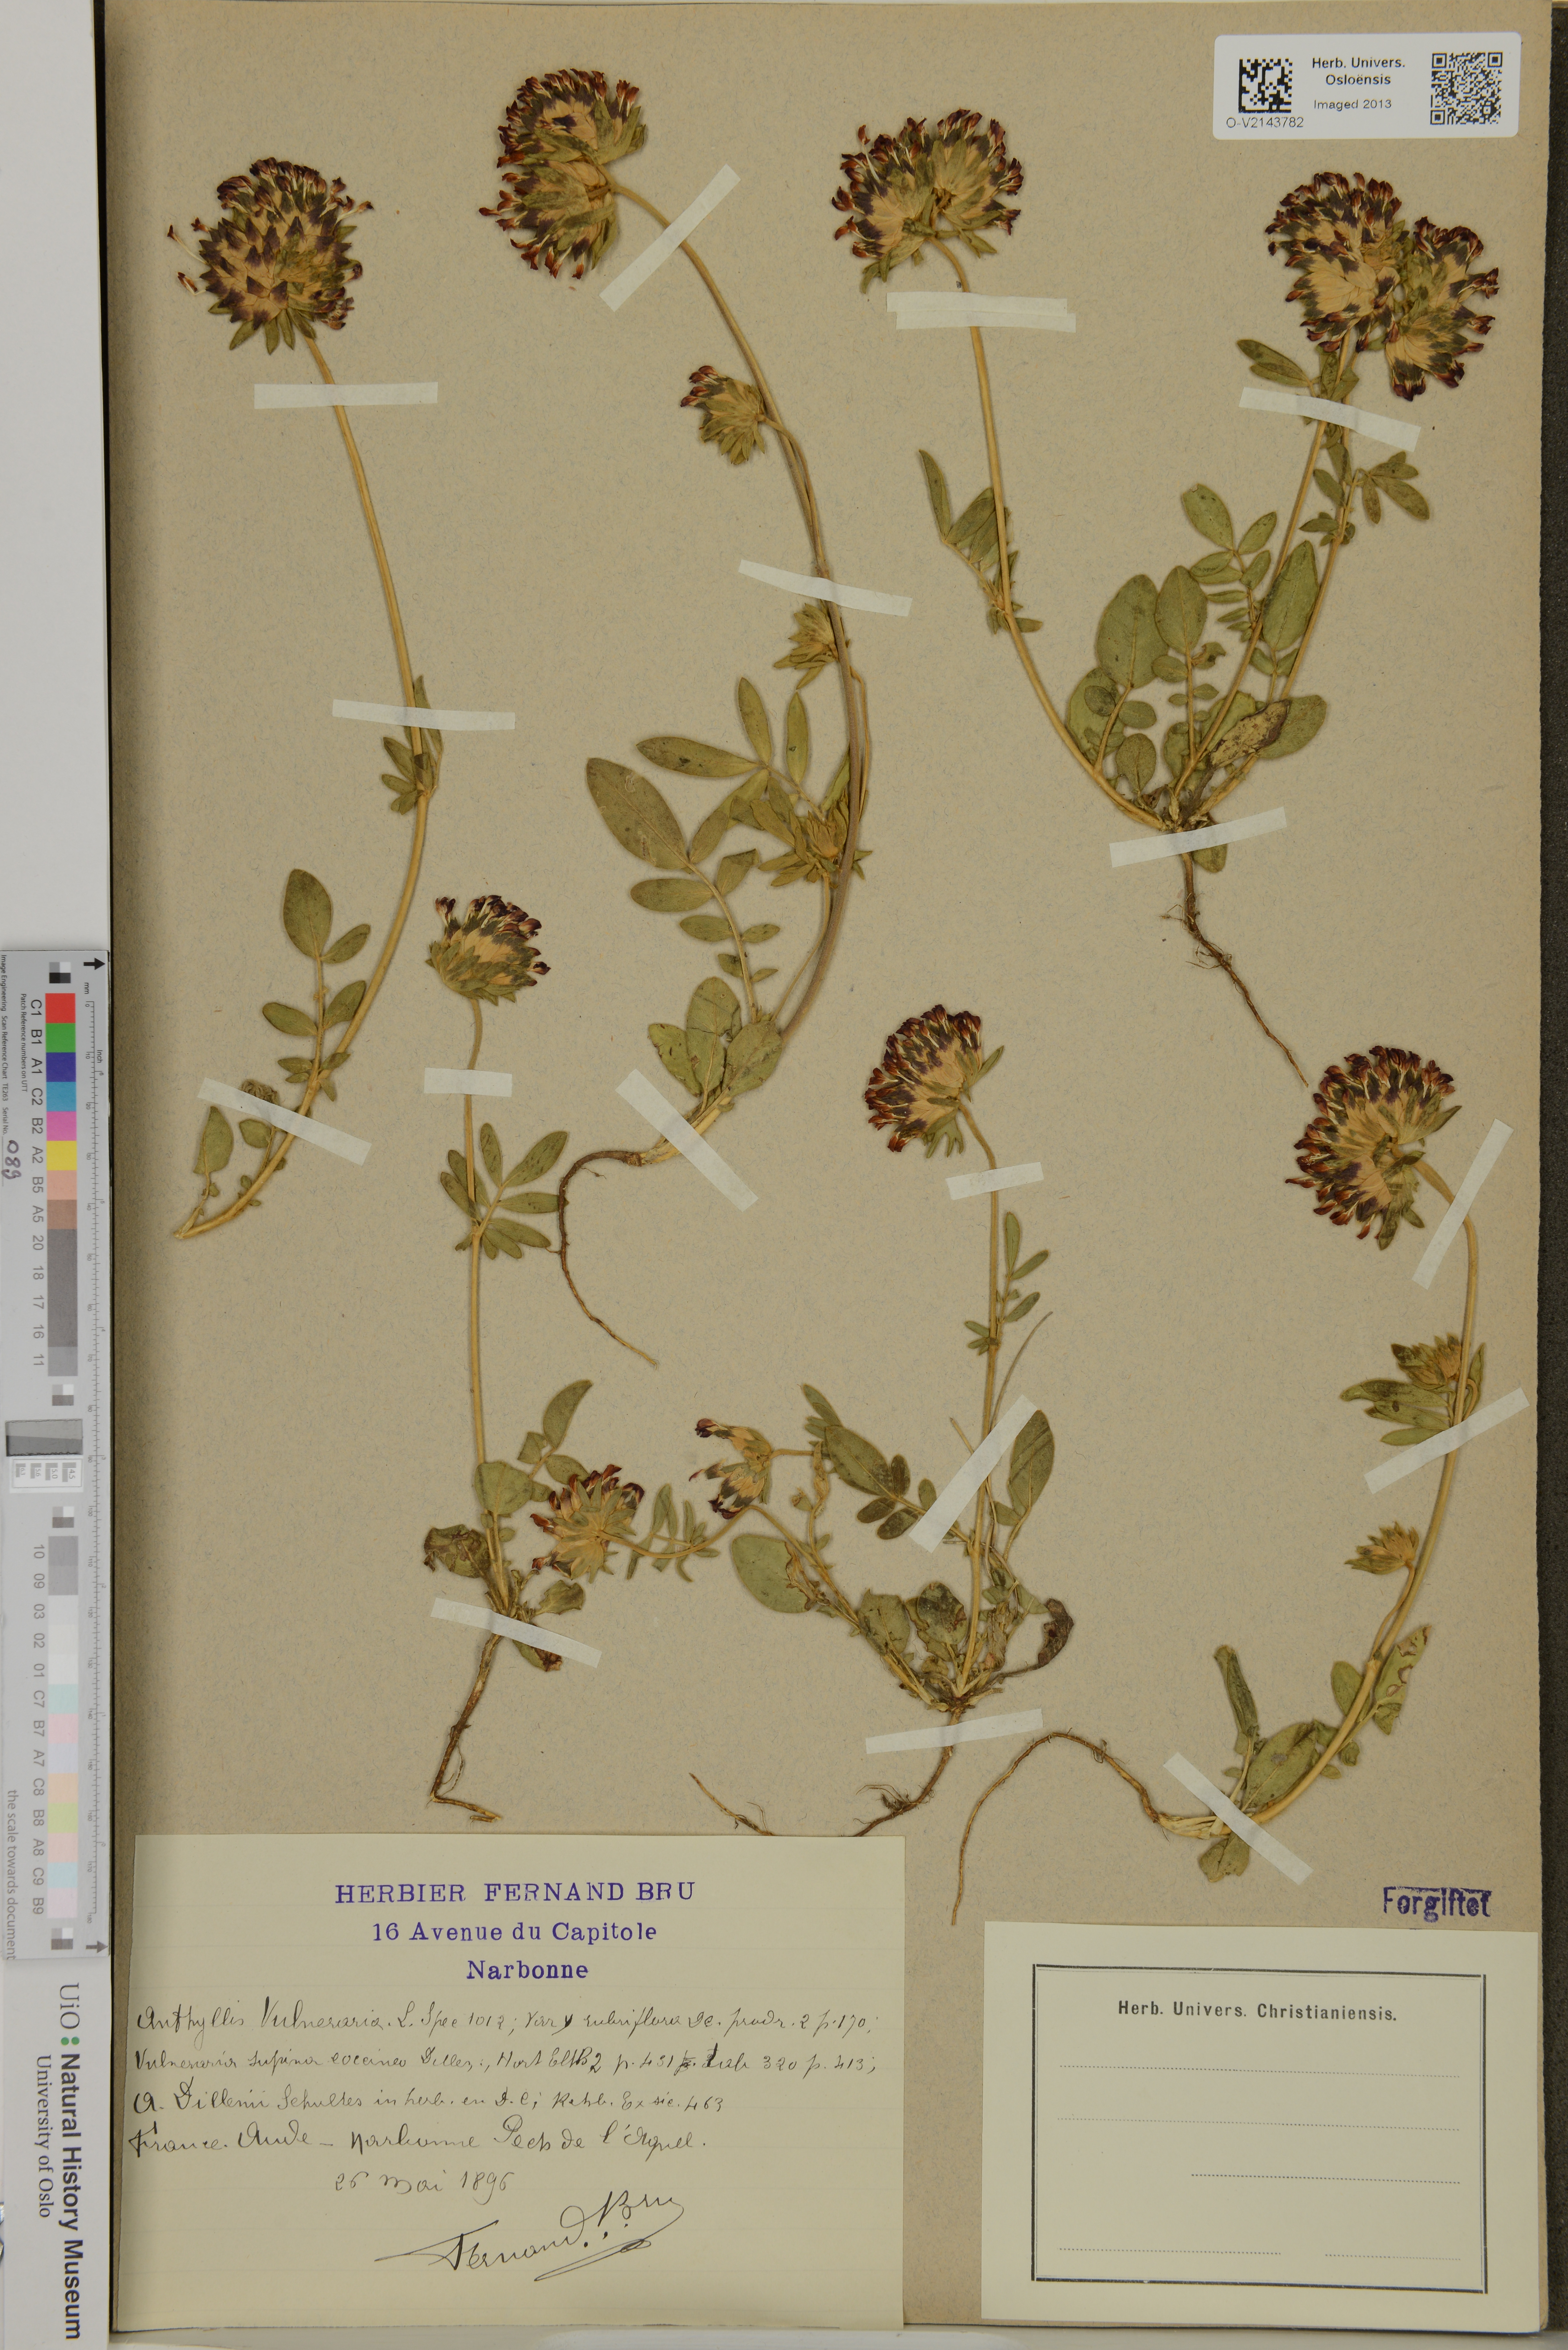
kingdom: Plantae
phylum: Tracheophyta
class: Magnoliopsida
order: Fabales
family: Fabaceae
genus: Anthyllis
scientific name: Anthyllis vulneraria
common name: Kidney vetch
